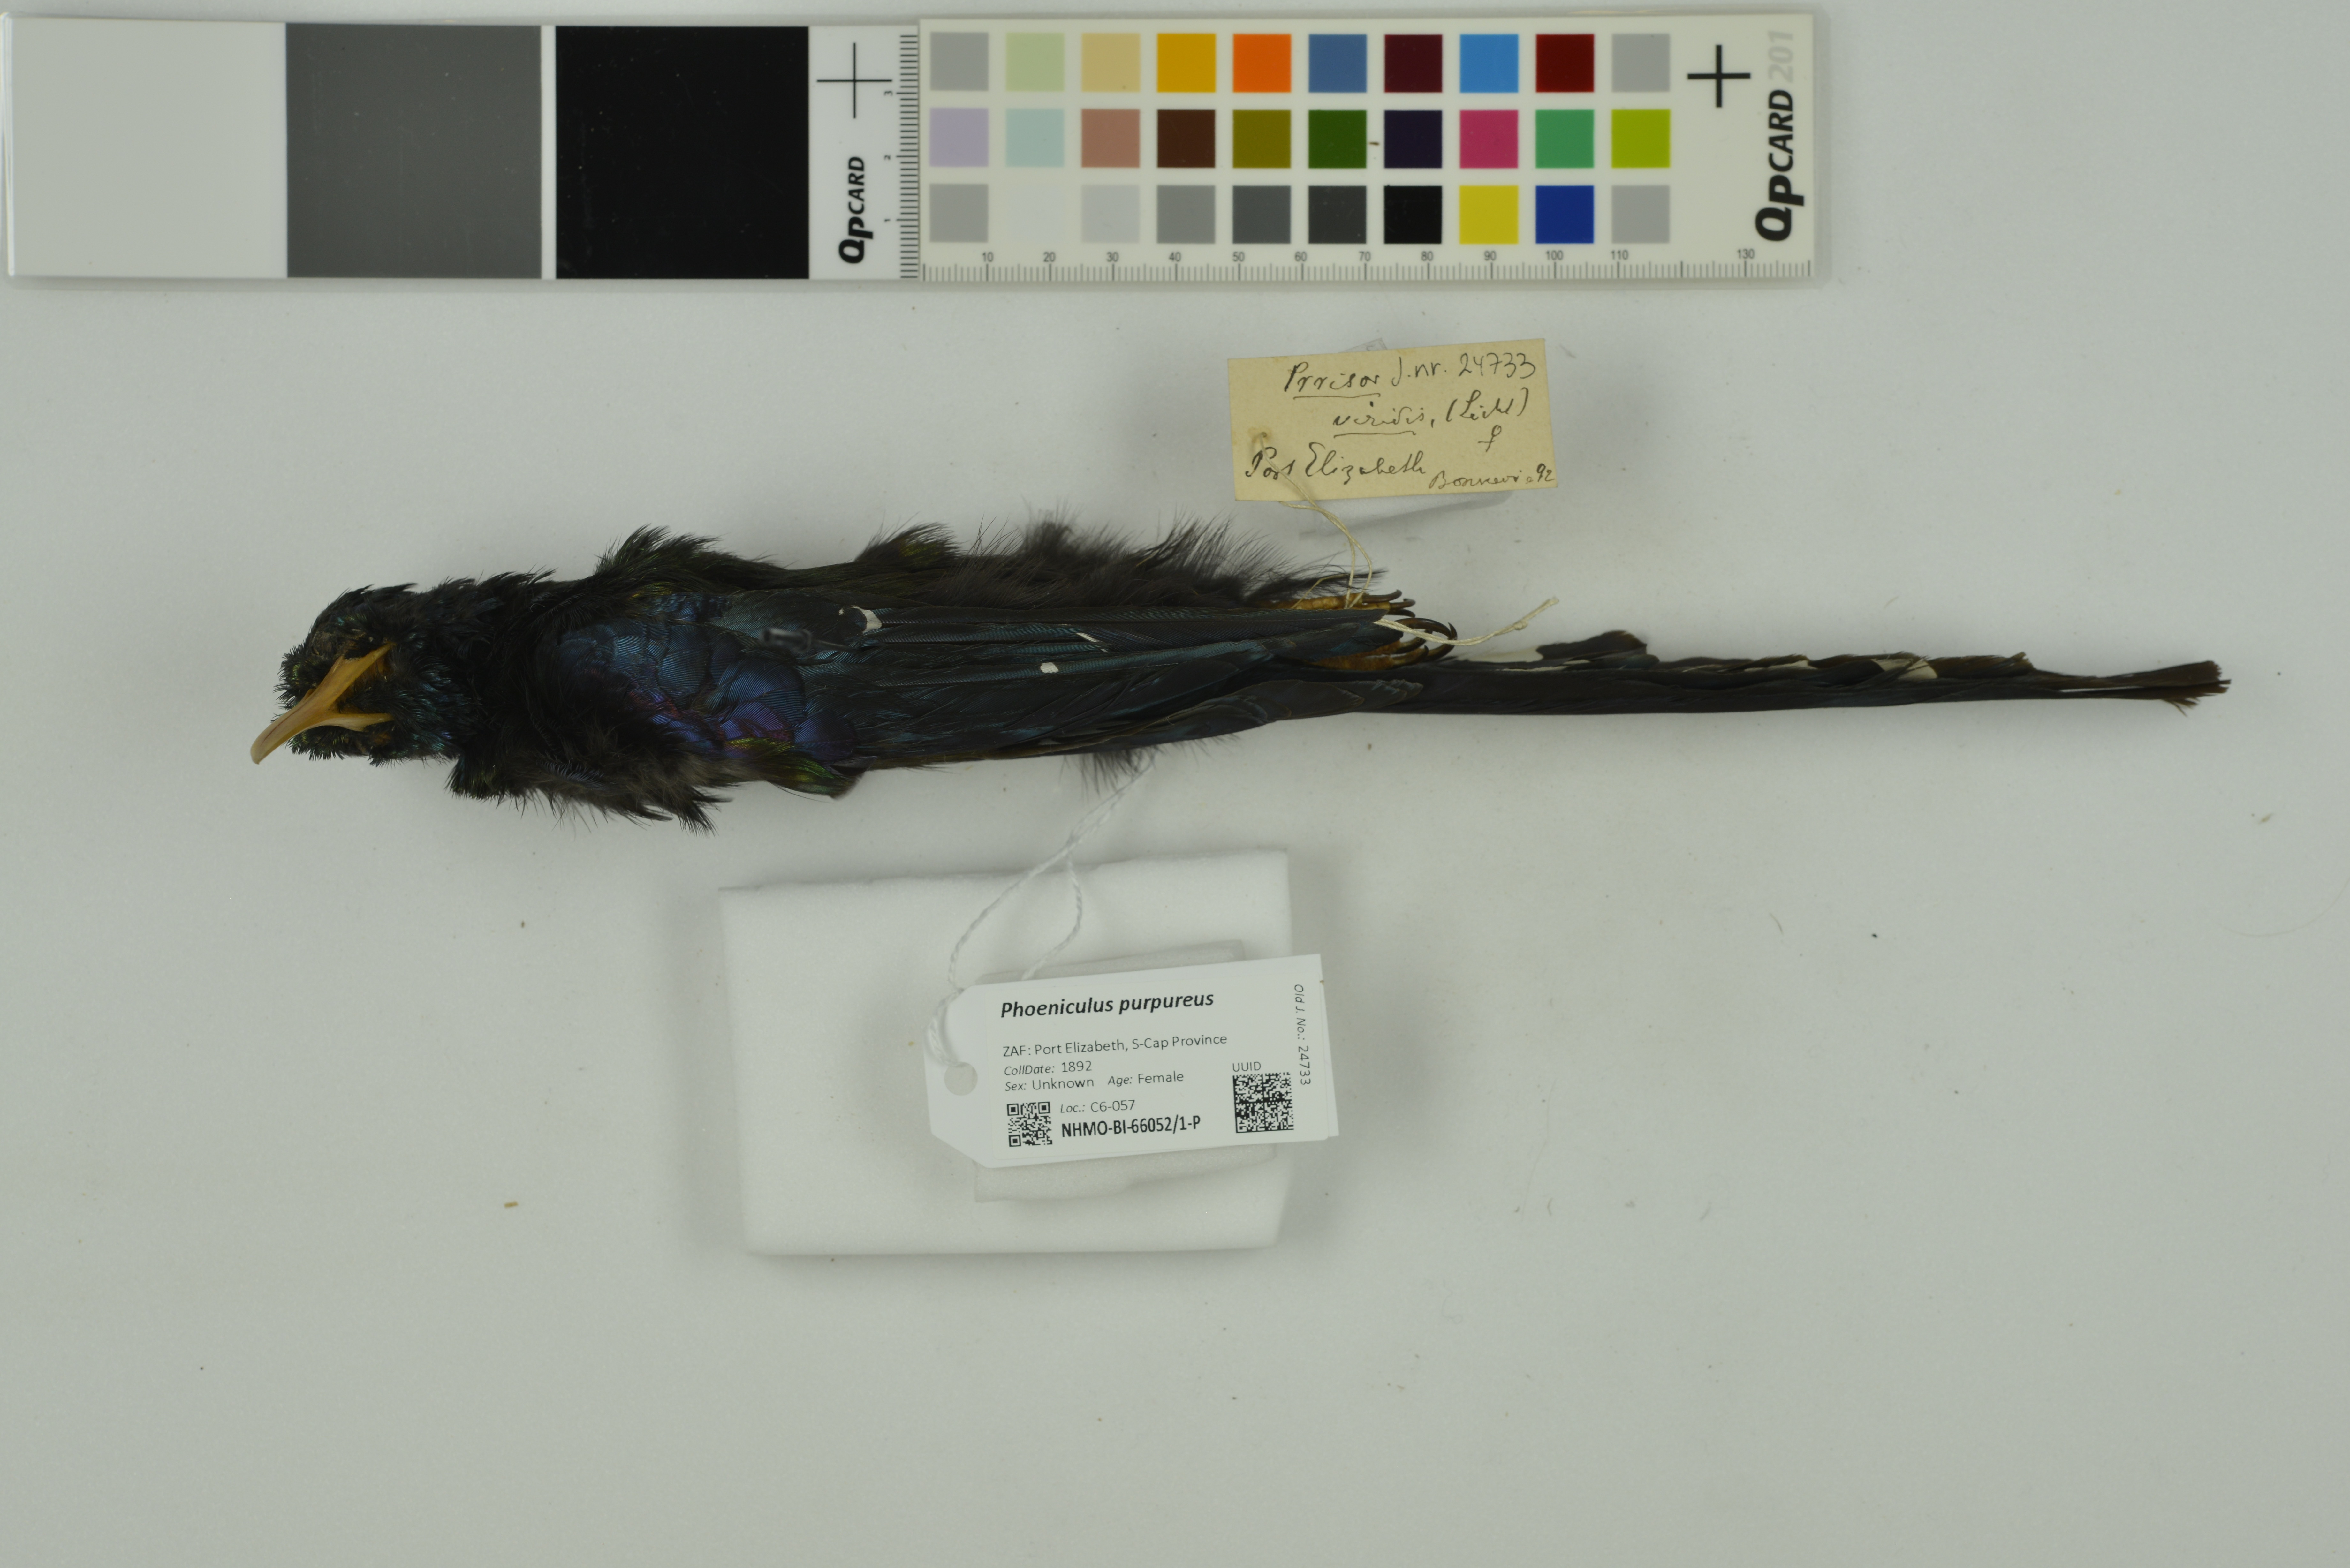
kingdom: Animalia
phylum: Chordata
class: Aves
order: Bucerotiformes
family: Phoeniculidae
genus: Phoeniculus
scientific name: Phoeniculus purpureus
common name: Green woodhoopoe
